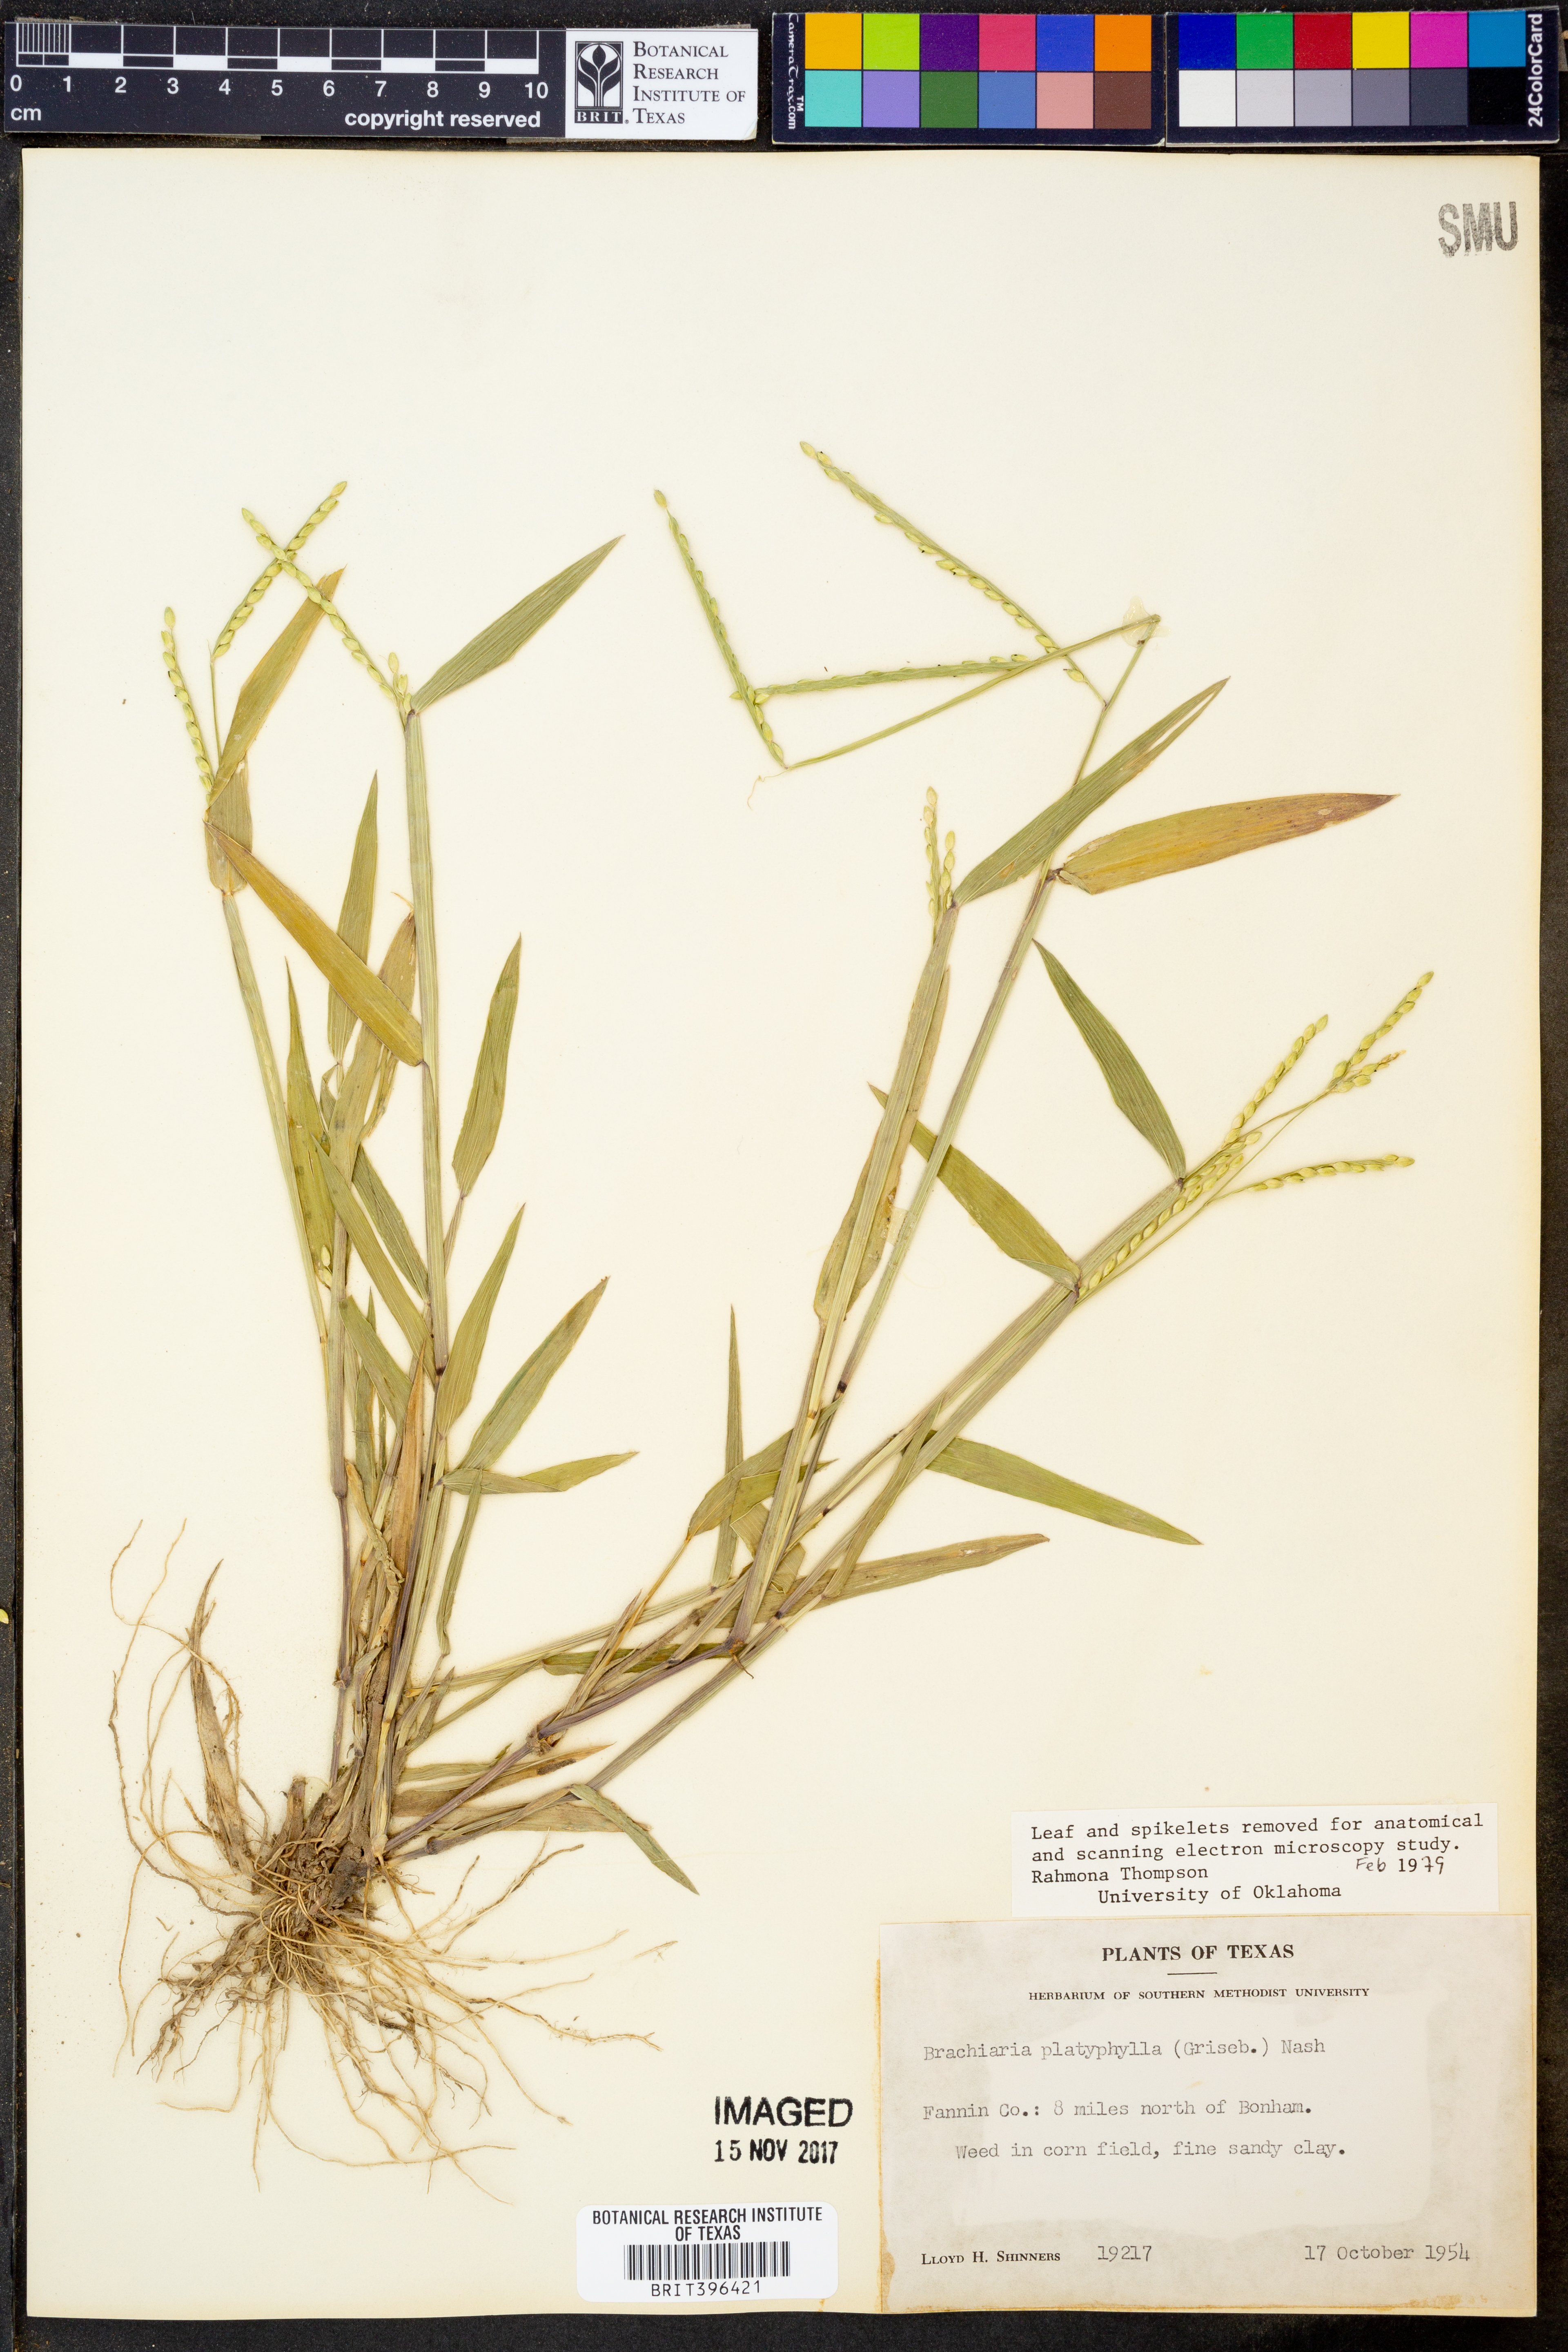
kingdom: Plantae
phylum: Tracheophyta
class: Liliopsida
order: Poales
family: Poaceae
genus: Urochloa
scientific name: Urochloa platyphylla
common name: White para grass
